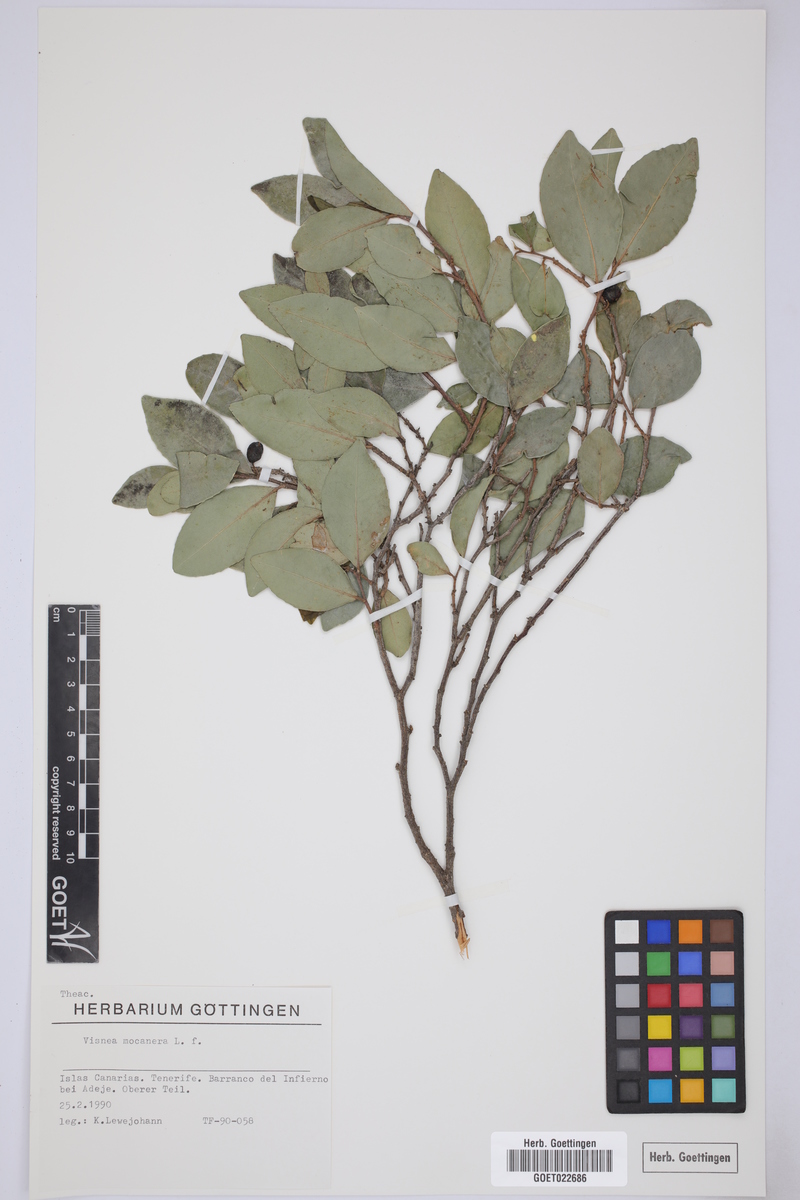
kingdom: Plantae
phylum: Tracheophyta
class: Magnoliopsida
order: Ericales
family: Pentaphylacaceae
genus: Visnea
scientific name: Visnea mocanera
